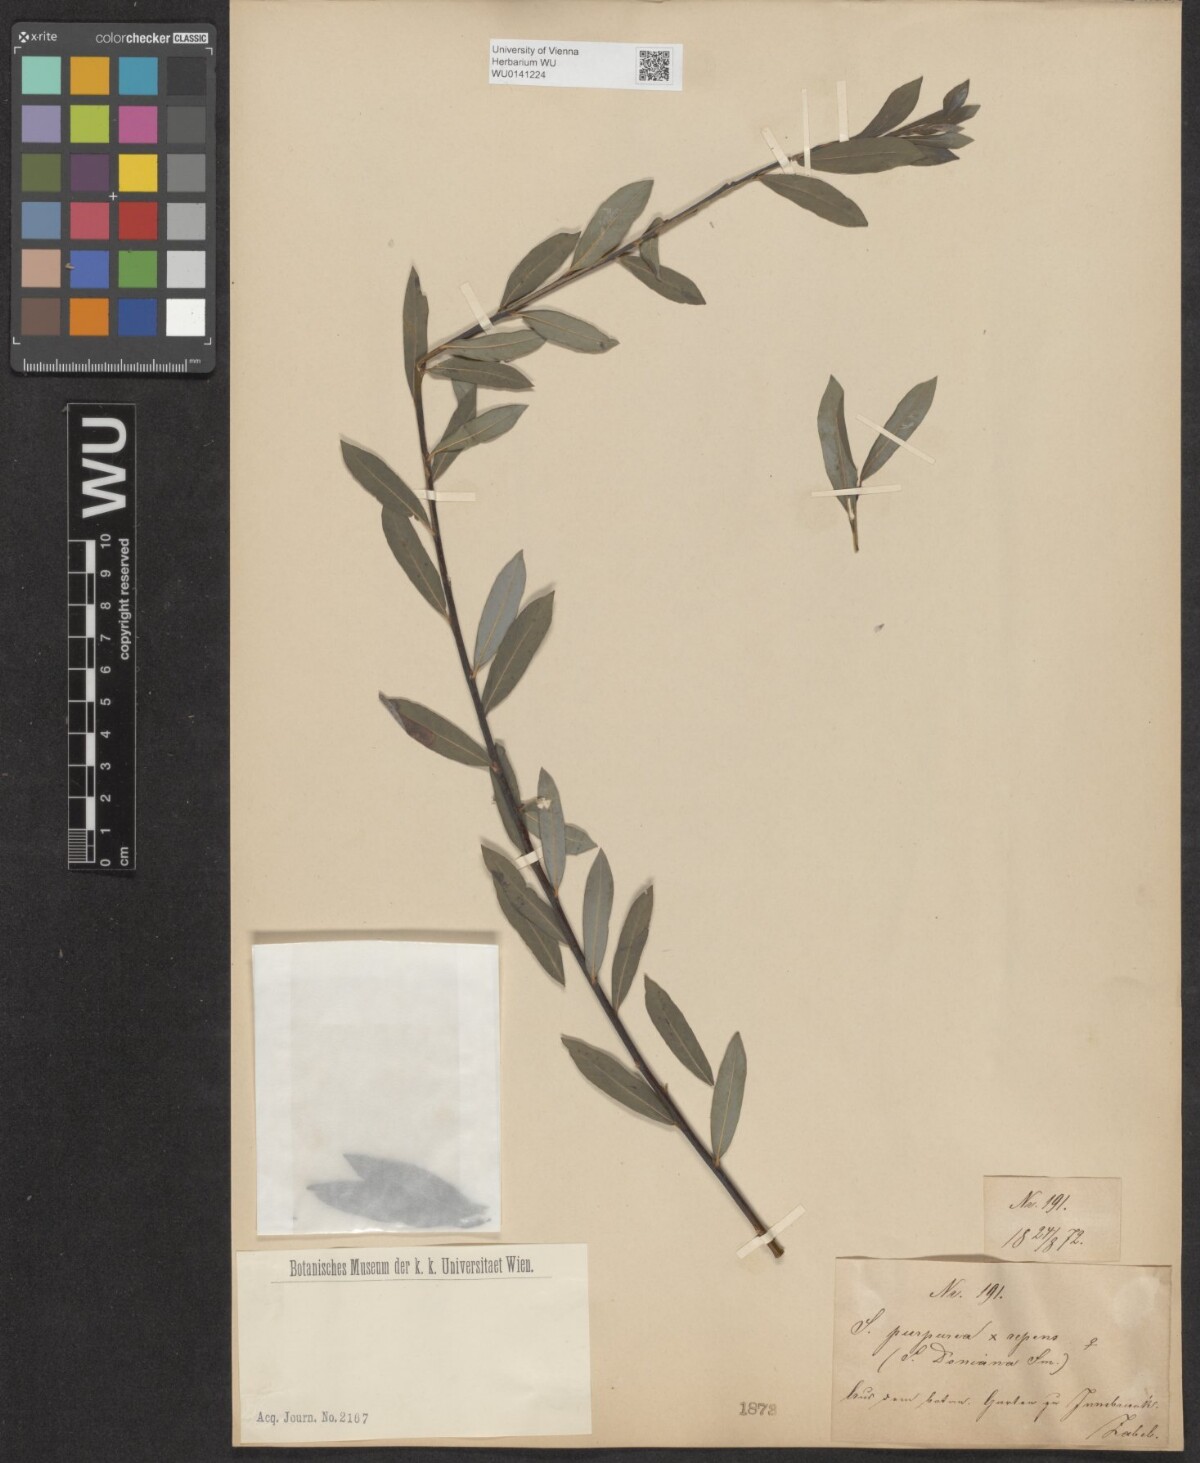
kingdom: Plantae
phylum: Tracheophyta
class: Magnoliopsida
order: Malpighiales
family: Salicaceae
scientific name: Salicaceae
